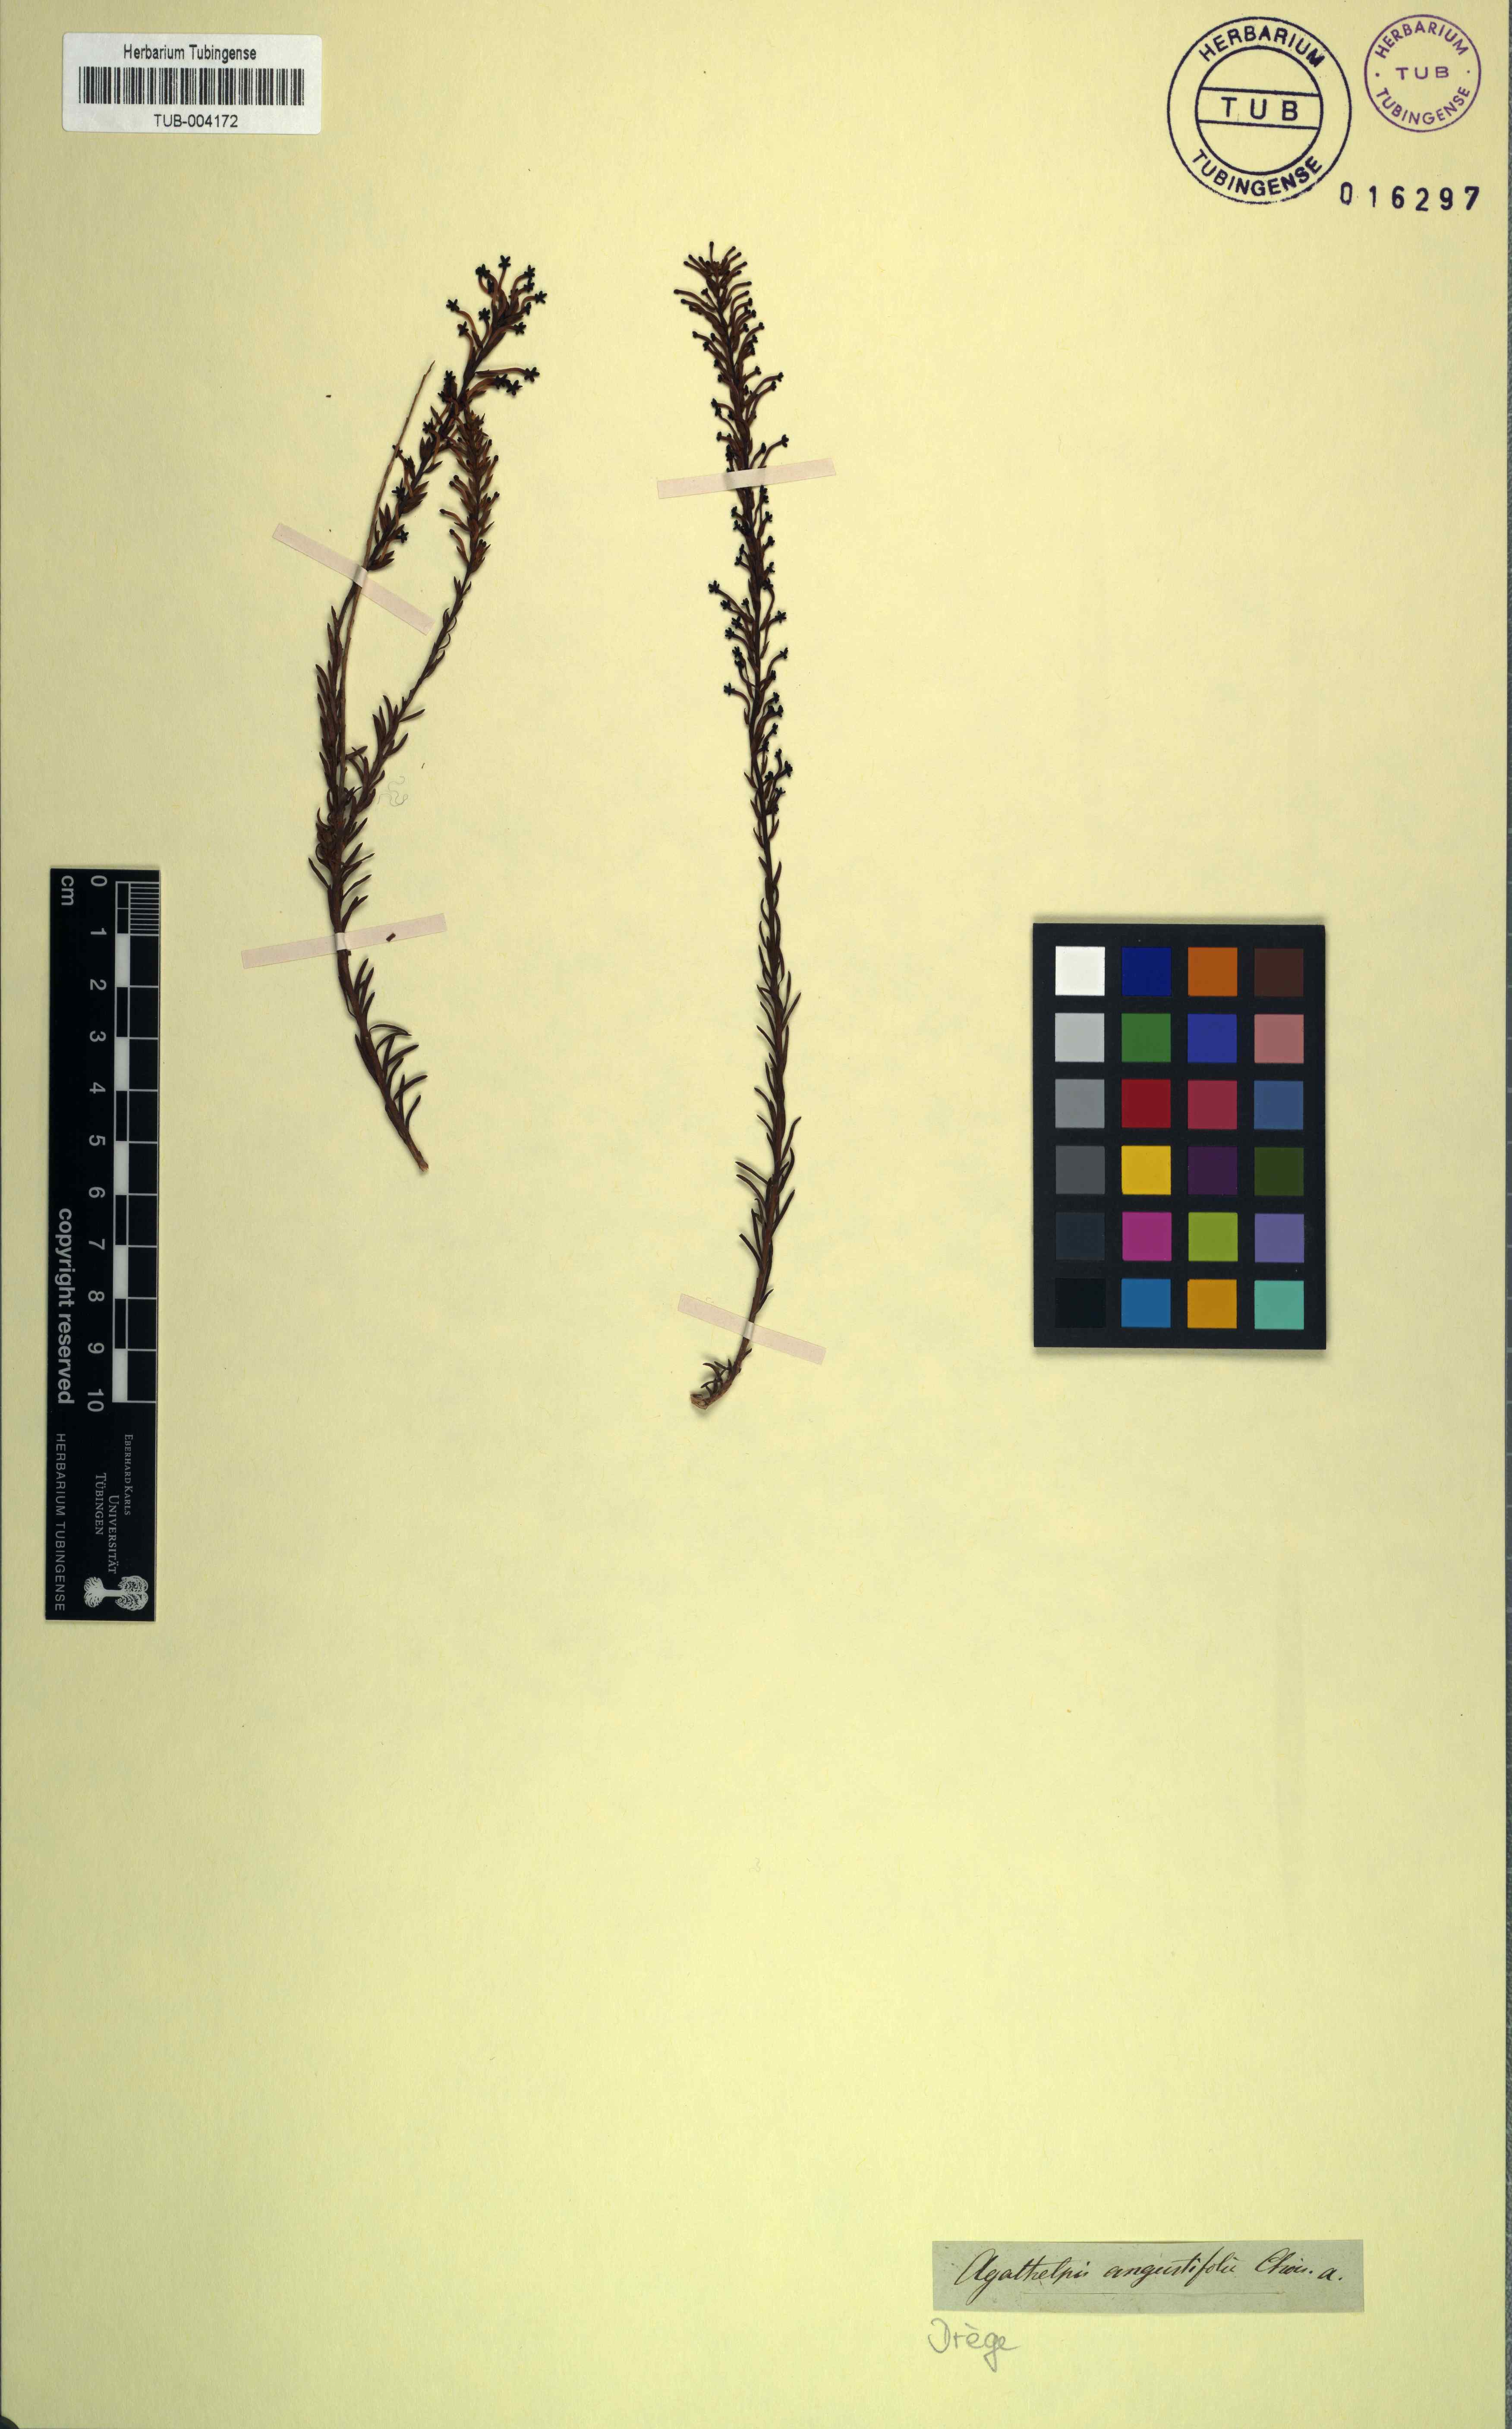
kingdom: Plantae
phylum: Tracheophyta
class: Magnoliopsida
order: Lamiales
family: Scrophulariaceae
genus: Microdon
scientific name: Microdon dubius
